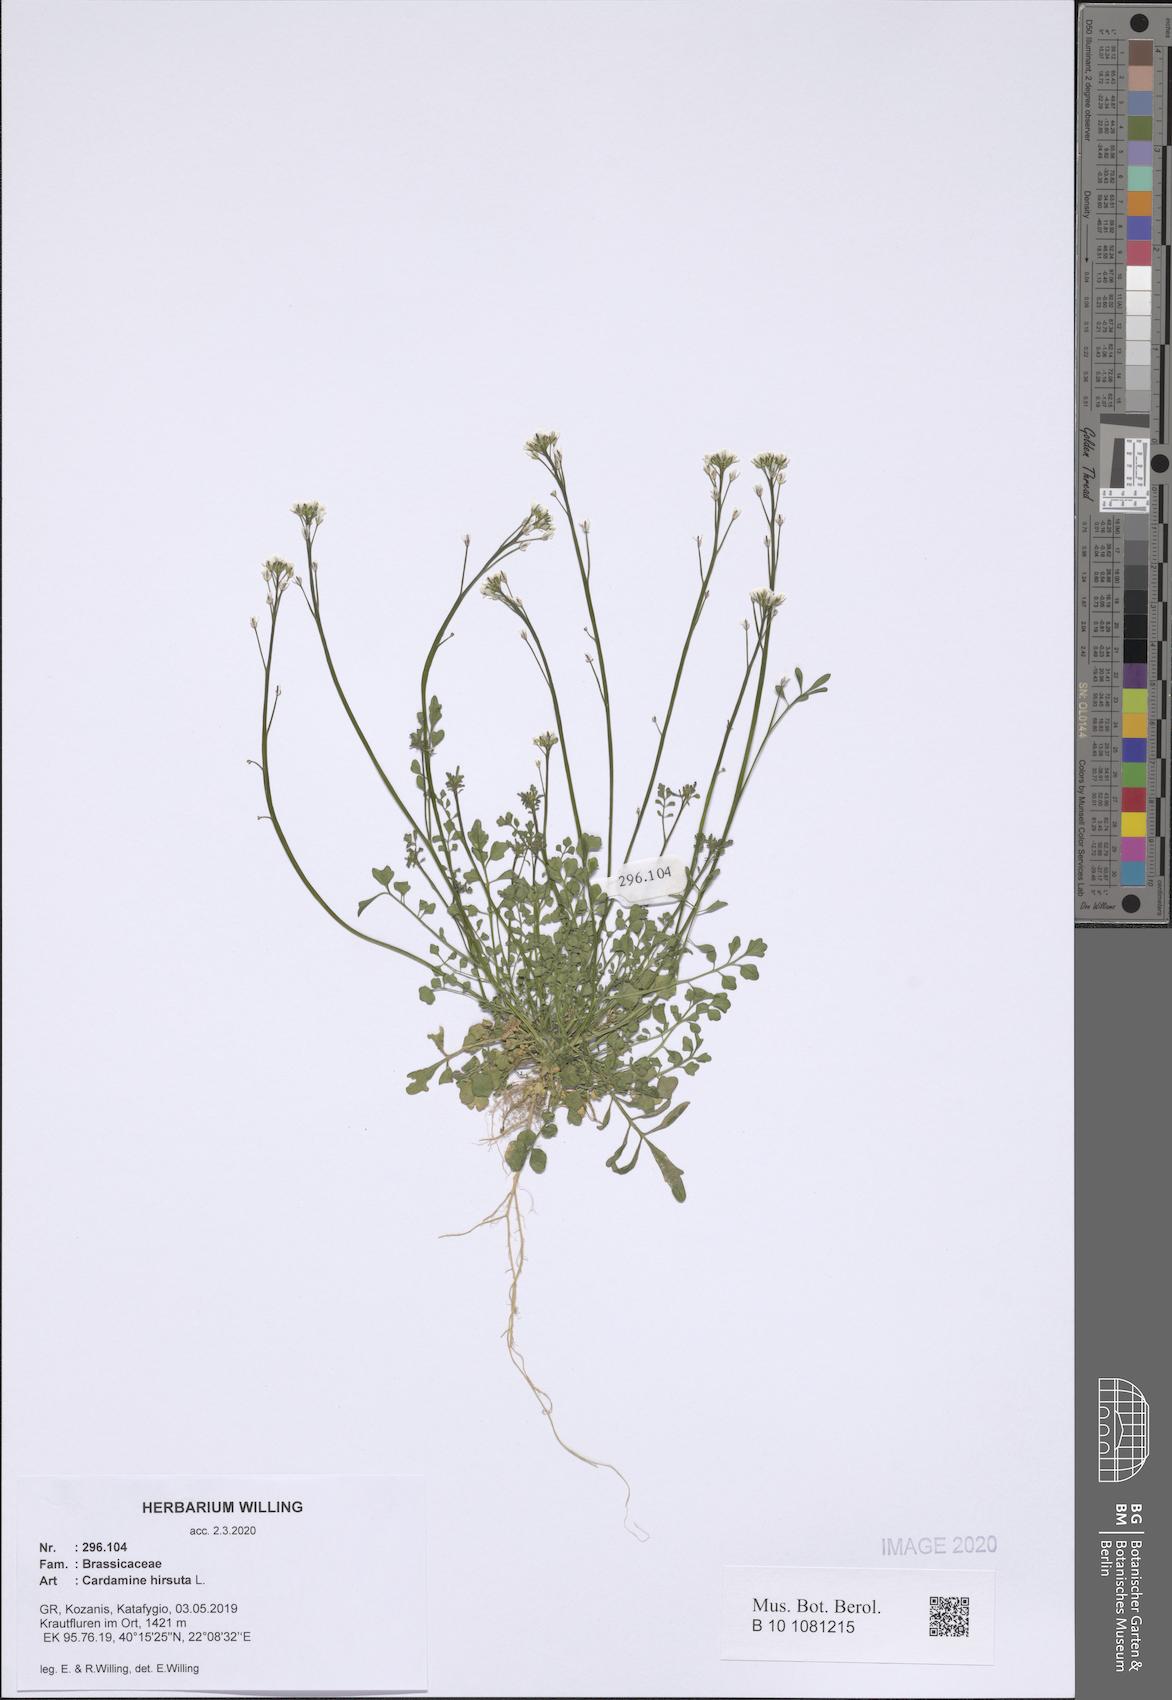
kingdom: Plantae
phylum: Tracheophyta
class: Magnoliopsida
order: Brassicales
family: Brassicaceae
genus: Cardamine
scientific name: Cardamine hirsuta
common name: Hairy bittercress
